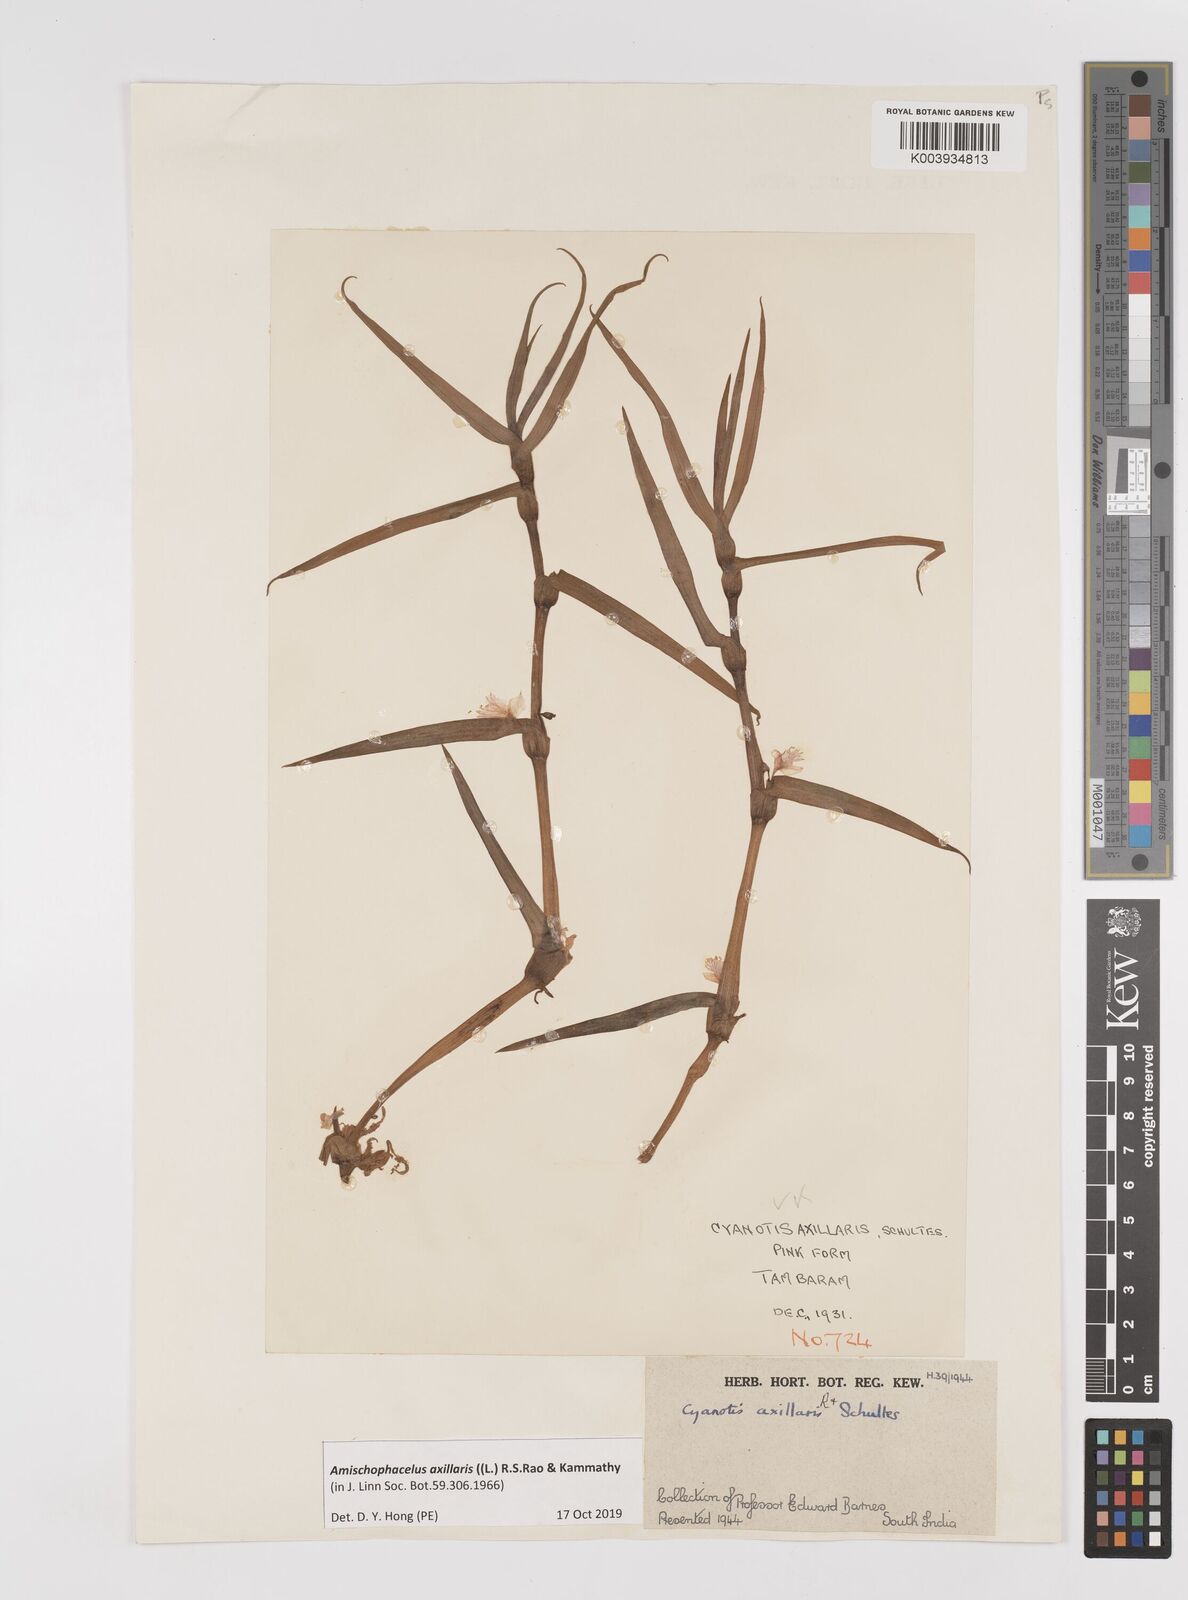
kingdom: Plantae
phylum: Tracheophyta
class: Liliopsida
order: Commelinales
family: Commelinaceae
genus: Cyanotis
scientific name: Cyanotis axillaris
